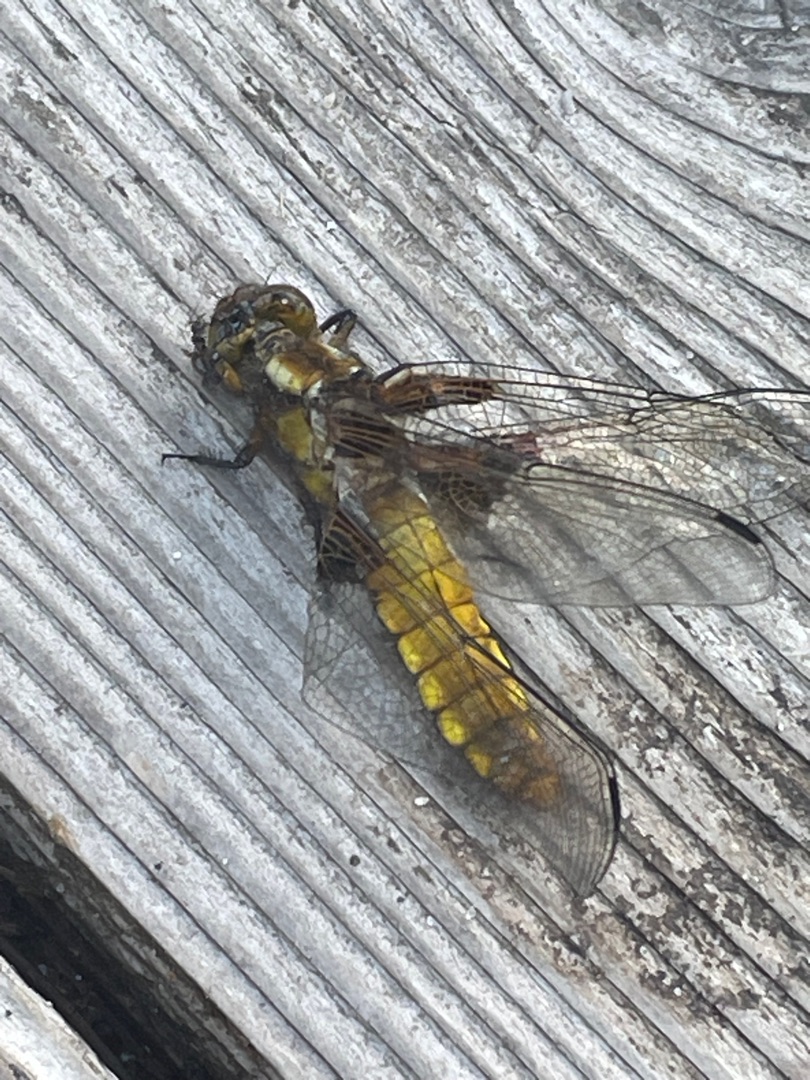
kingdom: Animalia
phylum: Arthropoda
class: Insecta
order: Odonata
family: Libellulidae
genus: Libellula
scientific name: Libellula depressa
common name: Blå libel
